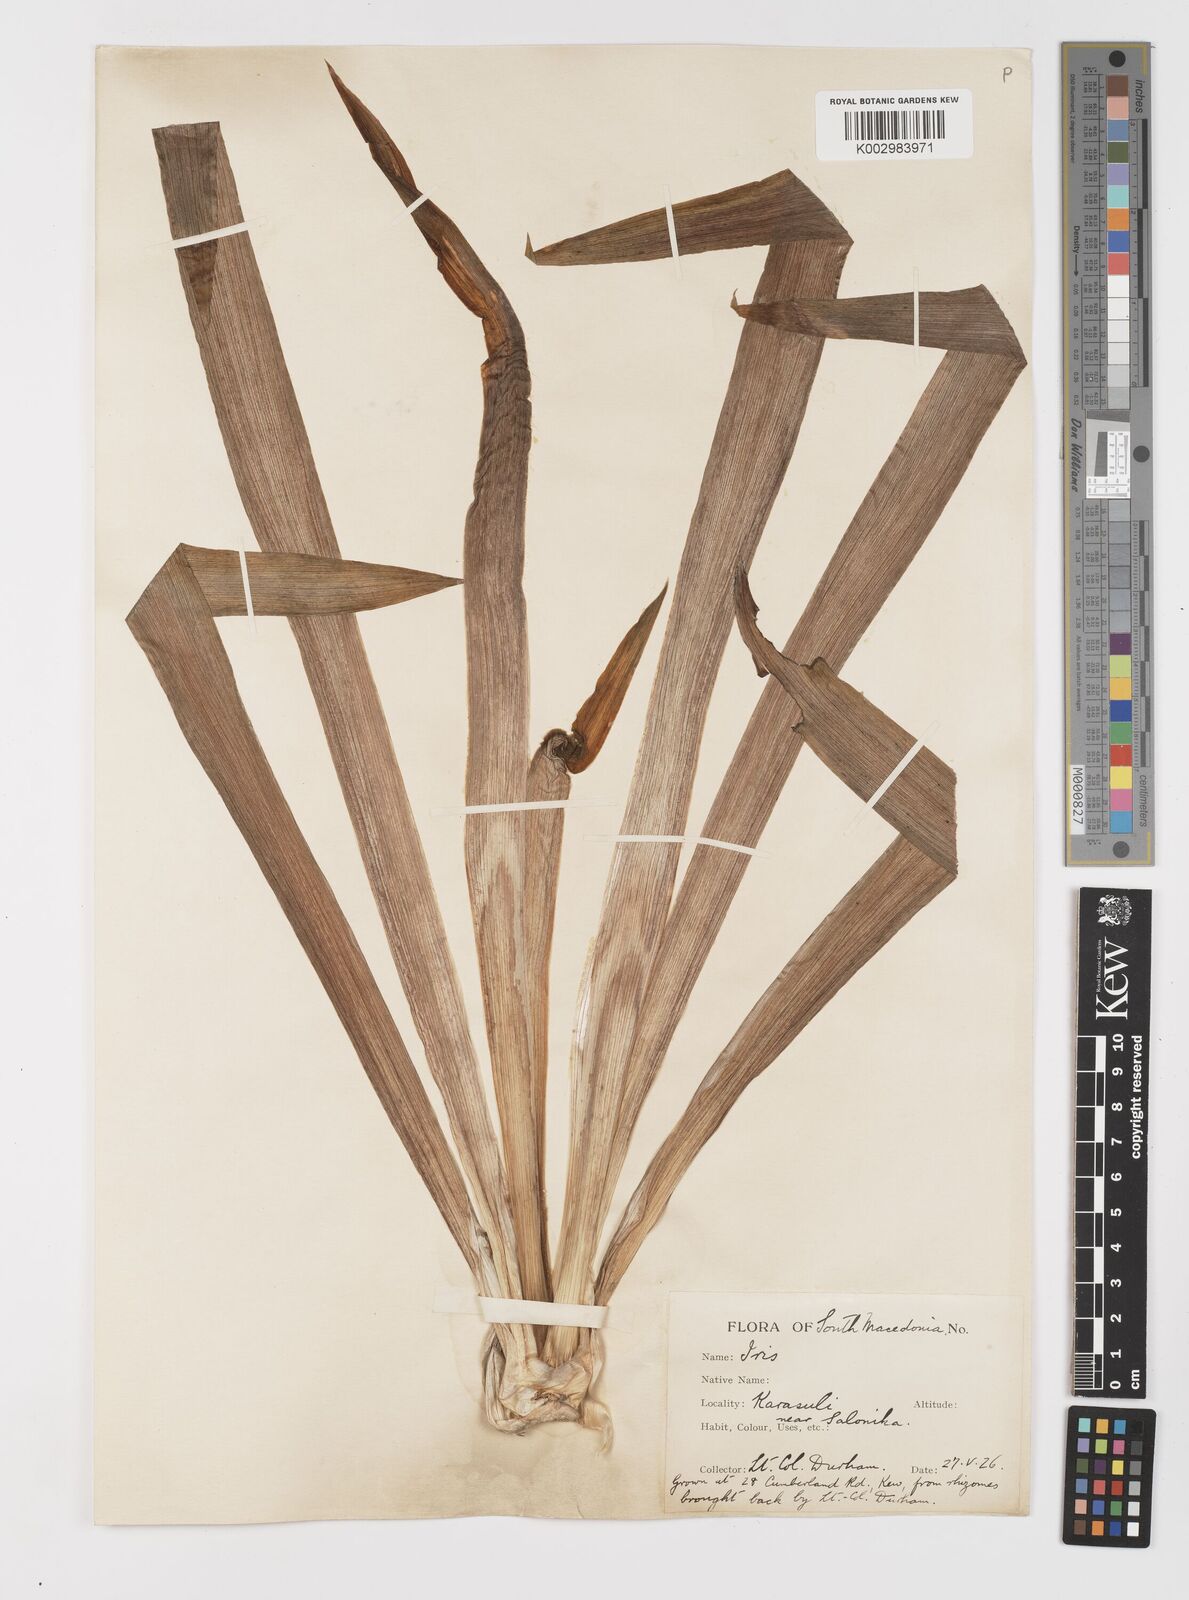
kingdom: Plantae
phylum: Tracheophyta
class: Liliopsida
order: Asparagales
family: Iridaceae
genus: Iris
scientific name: Iris germanica
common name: German iris
